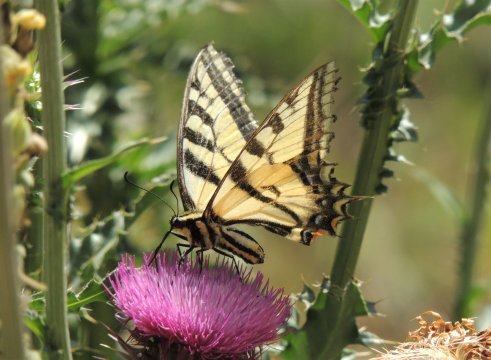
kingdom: Animalia
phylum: Arthropoda
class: Insecta
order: Lepidoptera
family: Papilionidae
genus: Pterourus
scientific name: Pterourus rutulus
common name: Western Tiger Swallowtail
